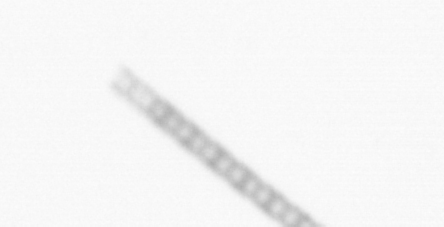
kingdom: Chromista
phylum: Ochrophyta
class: Bacillariophyceae
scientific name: Bacillariophyceae
